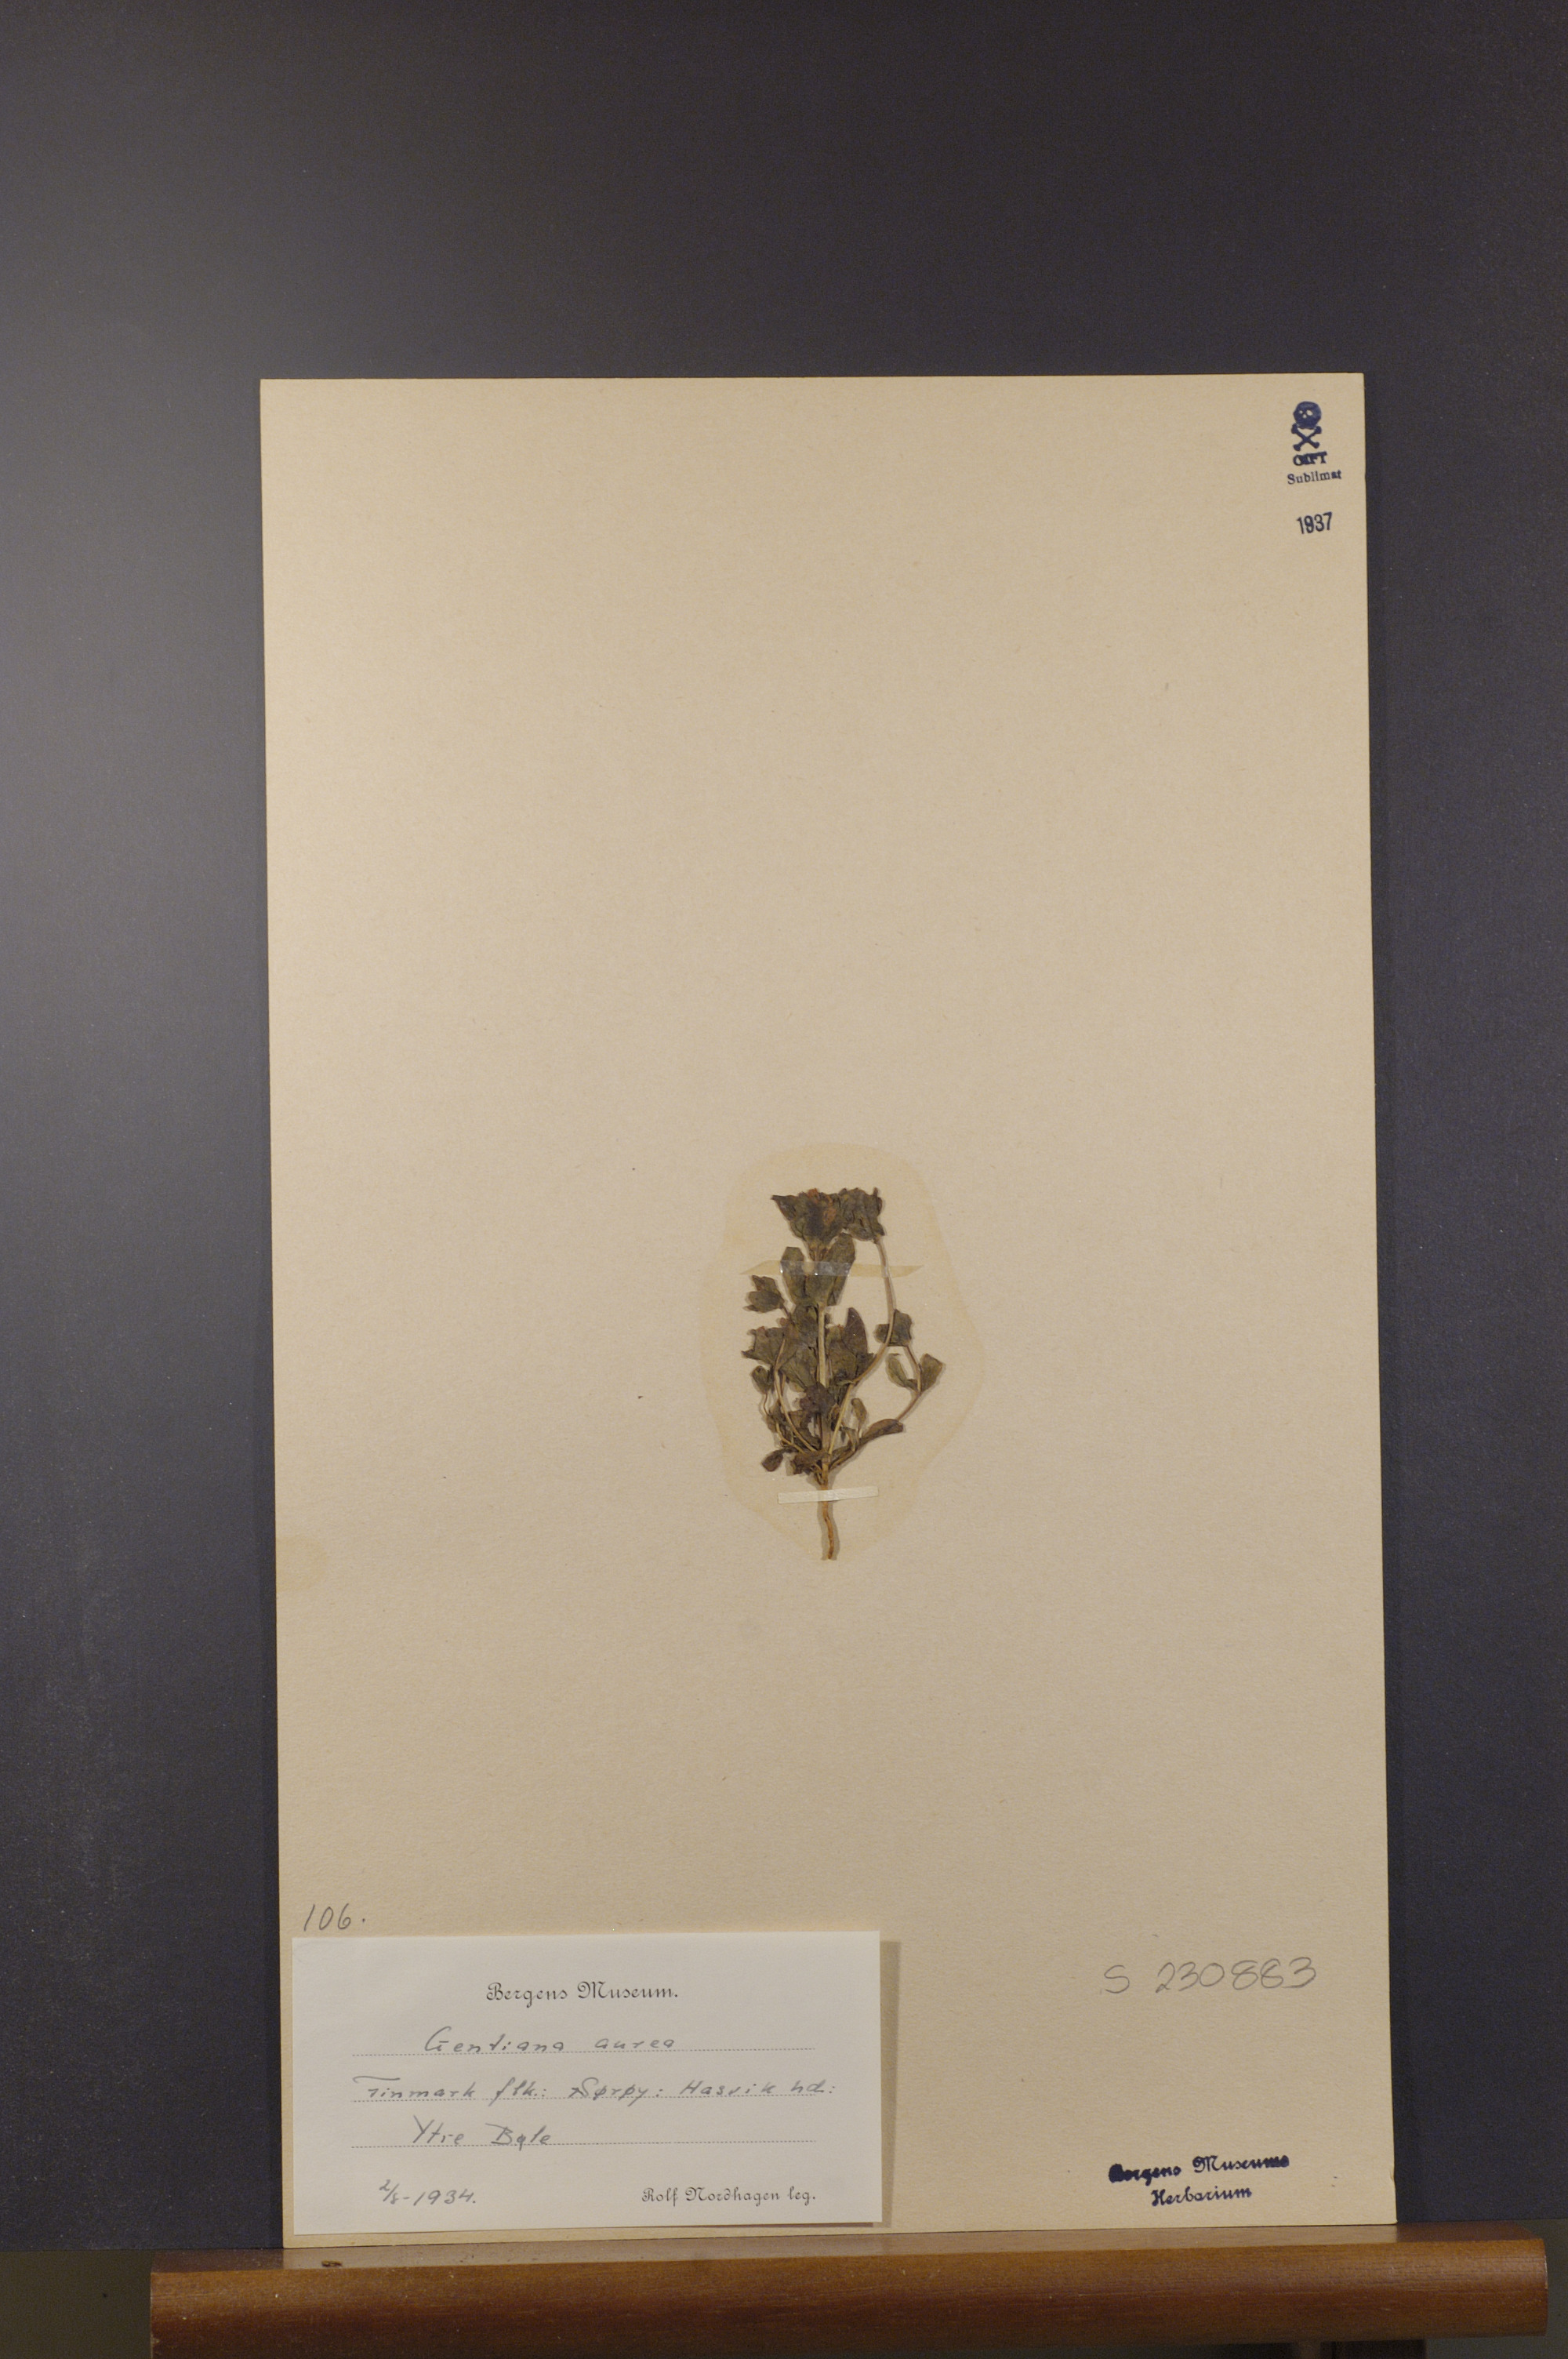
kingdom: Plantae
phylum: Tracheophyta
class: Magnoliopsida
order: Gentianales
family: Gentianaceae
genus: Gentianella
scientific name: Gentianella aurea
